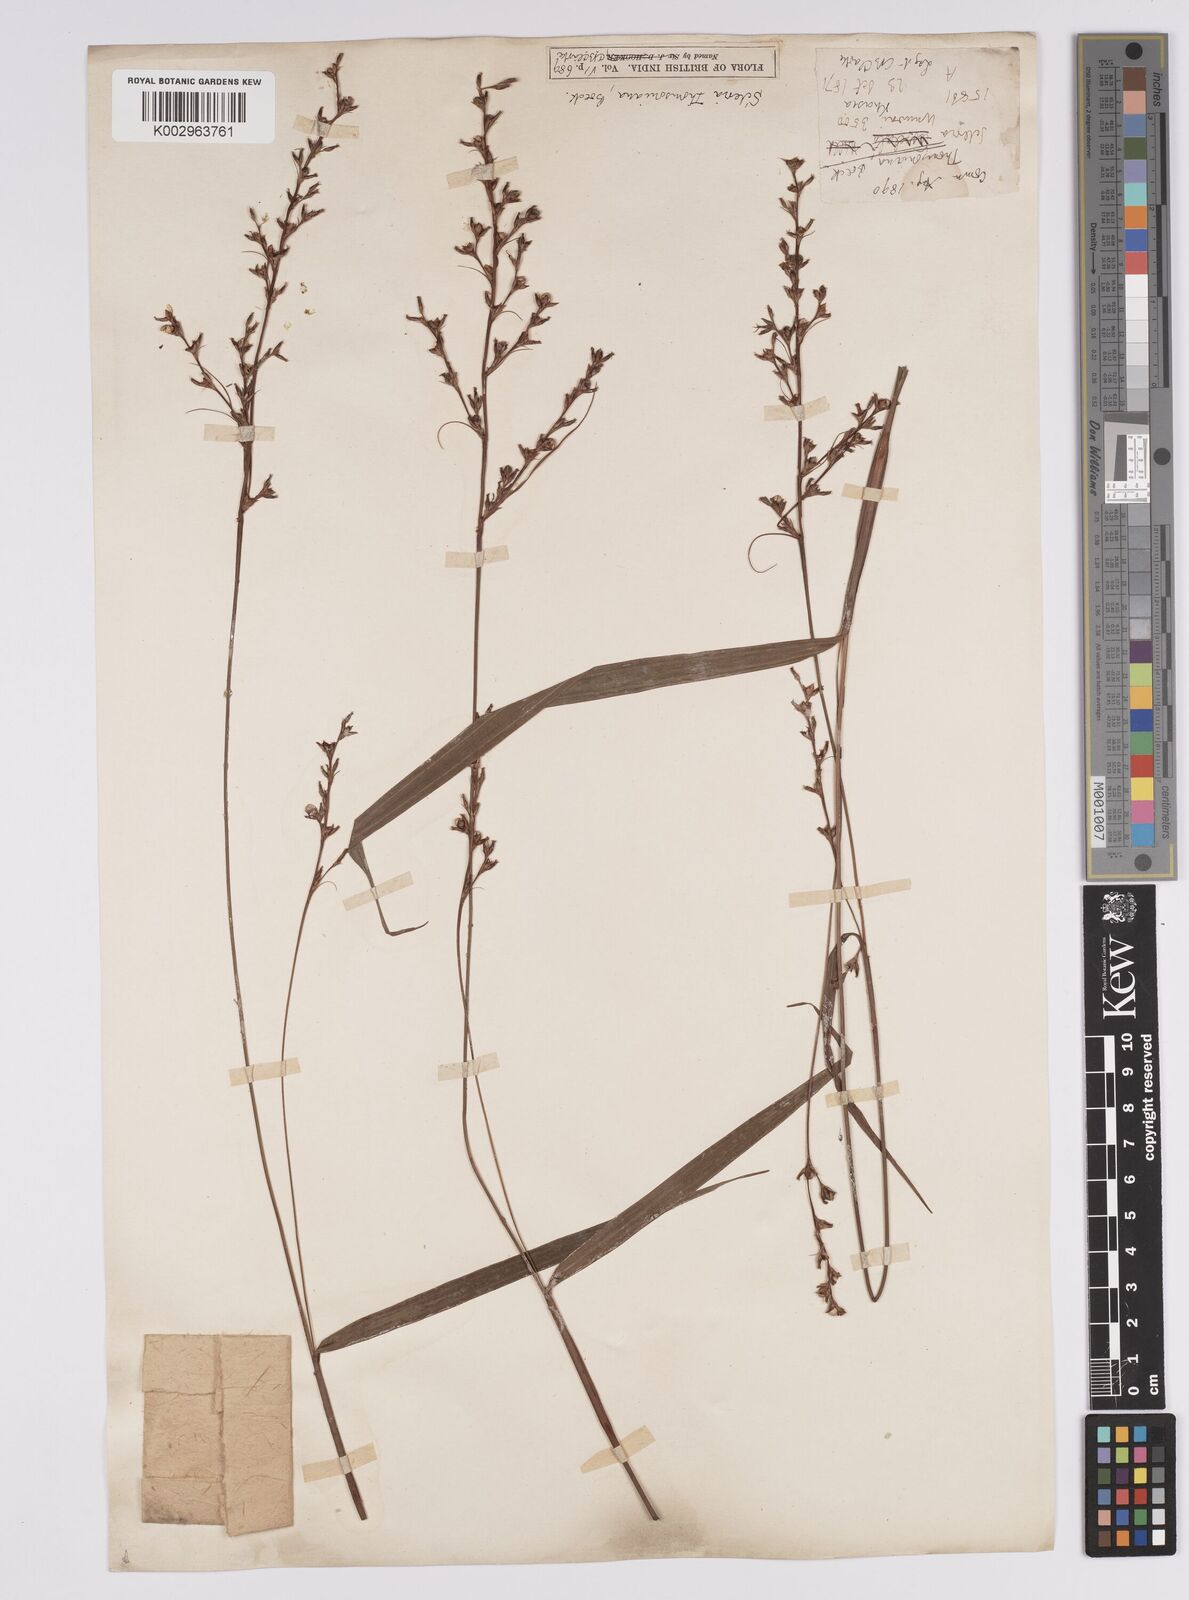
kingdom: Plantae
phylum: Tracheophyta
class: Liliopsida
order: Poales
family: Cyperaceae
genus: Scleria
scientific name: Scleria terrestris
